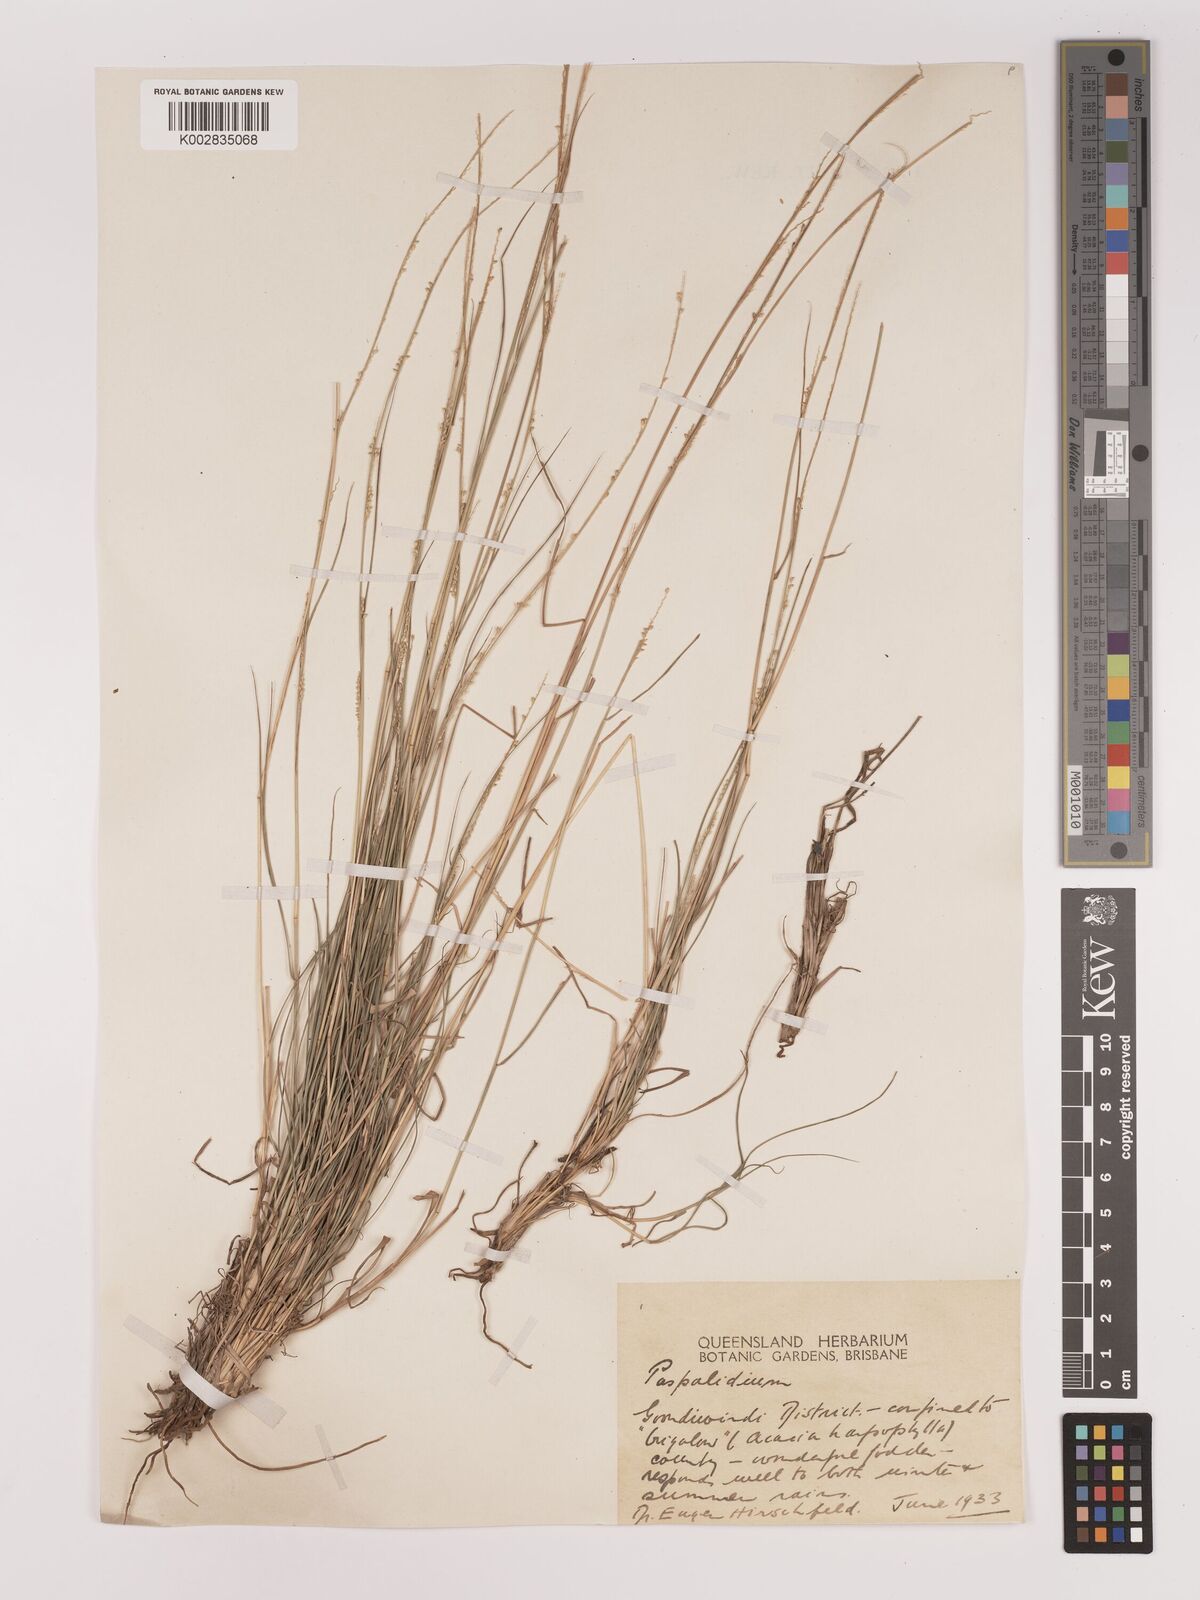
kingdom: Plantae
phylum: Tracheophyta
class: Liliopsida
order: Poales
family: Poaceae
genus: Setaria
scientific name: Setaria
